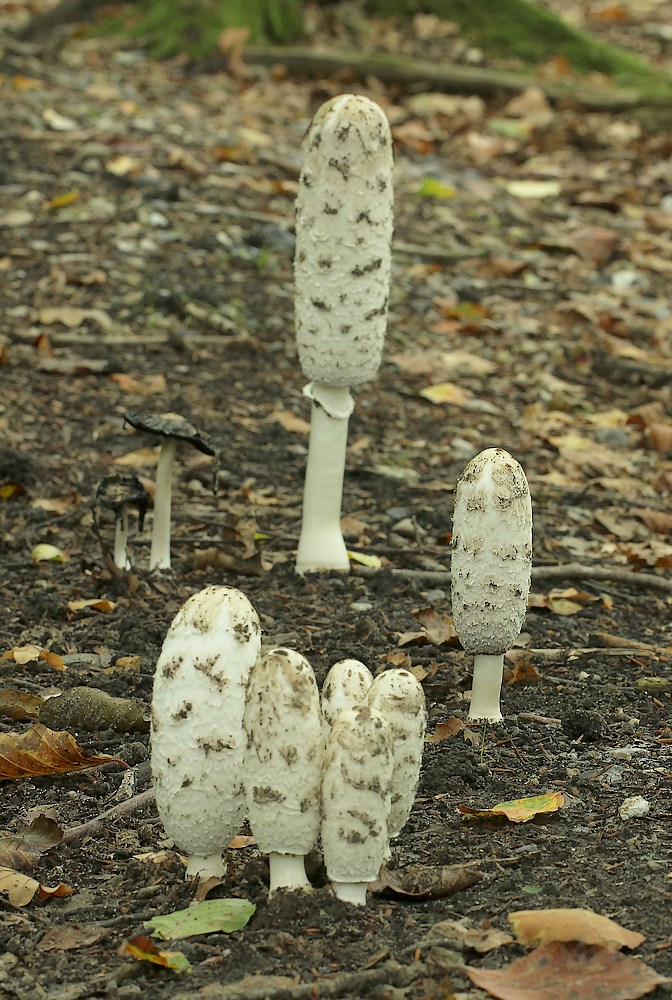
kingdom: Fungi
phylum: Basidiomycota
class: Agaricomycetes
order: Agaricales
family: Agaricaceae
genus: Coprinus
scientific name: Coprinus comatus
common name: stor parykhat
